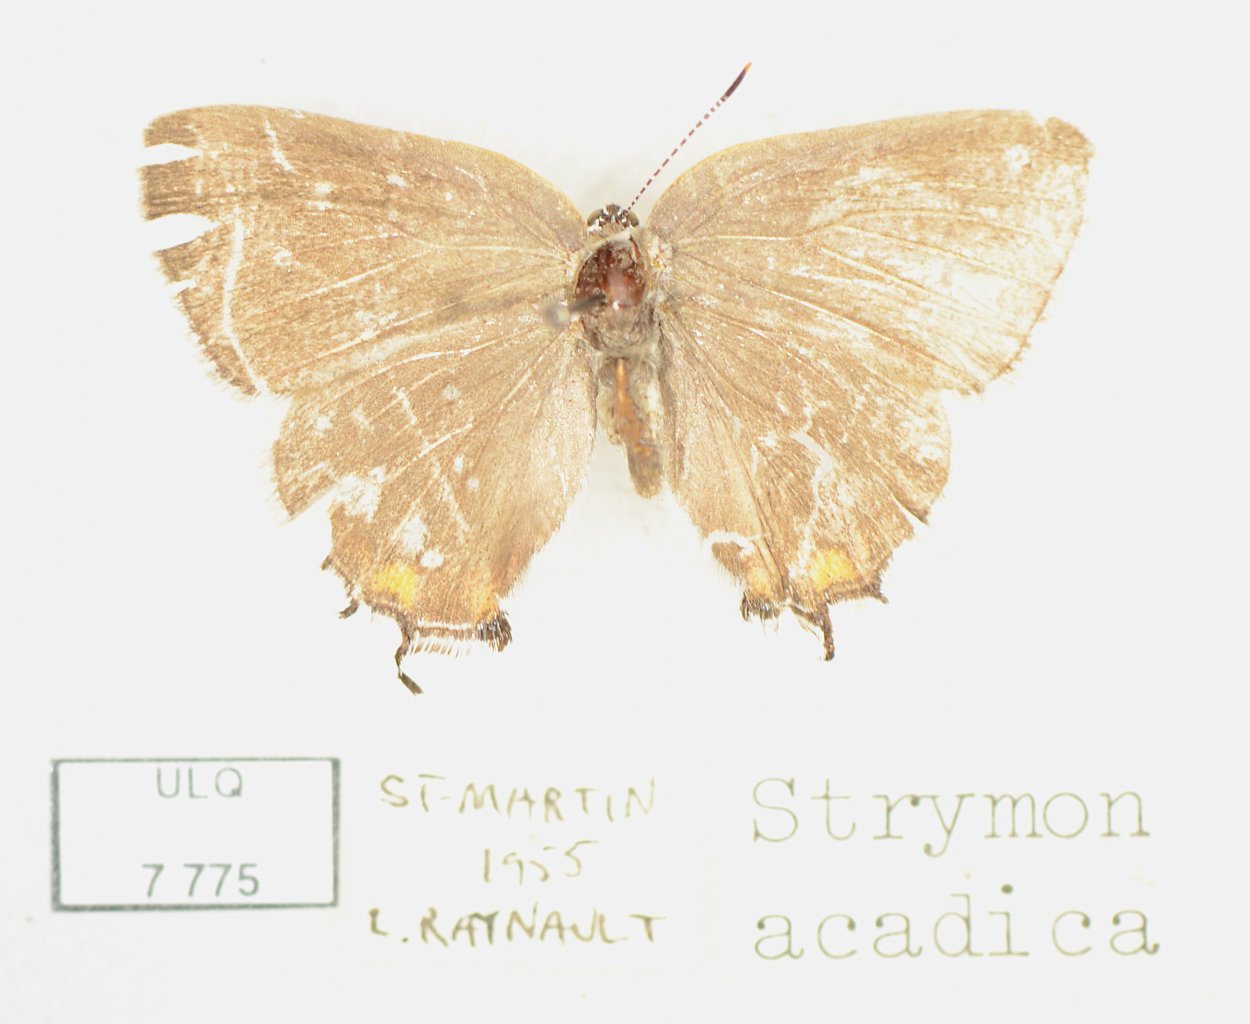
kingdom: Animalia
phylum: Arthropoda
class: Insecta
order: Lepidoptera
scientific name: Lepidoptera
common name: Butterflies
